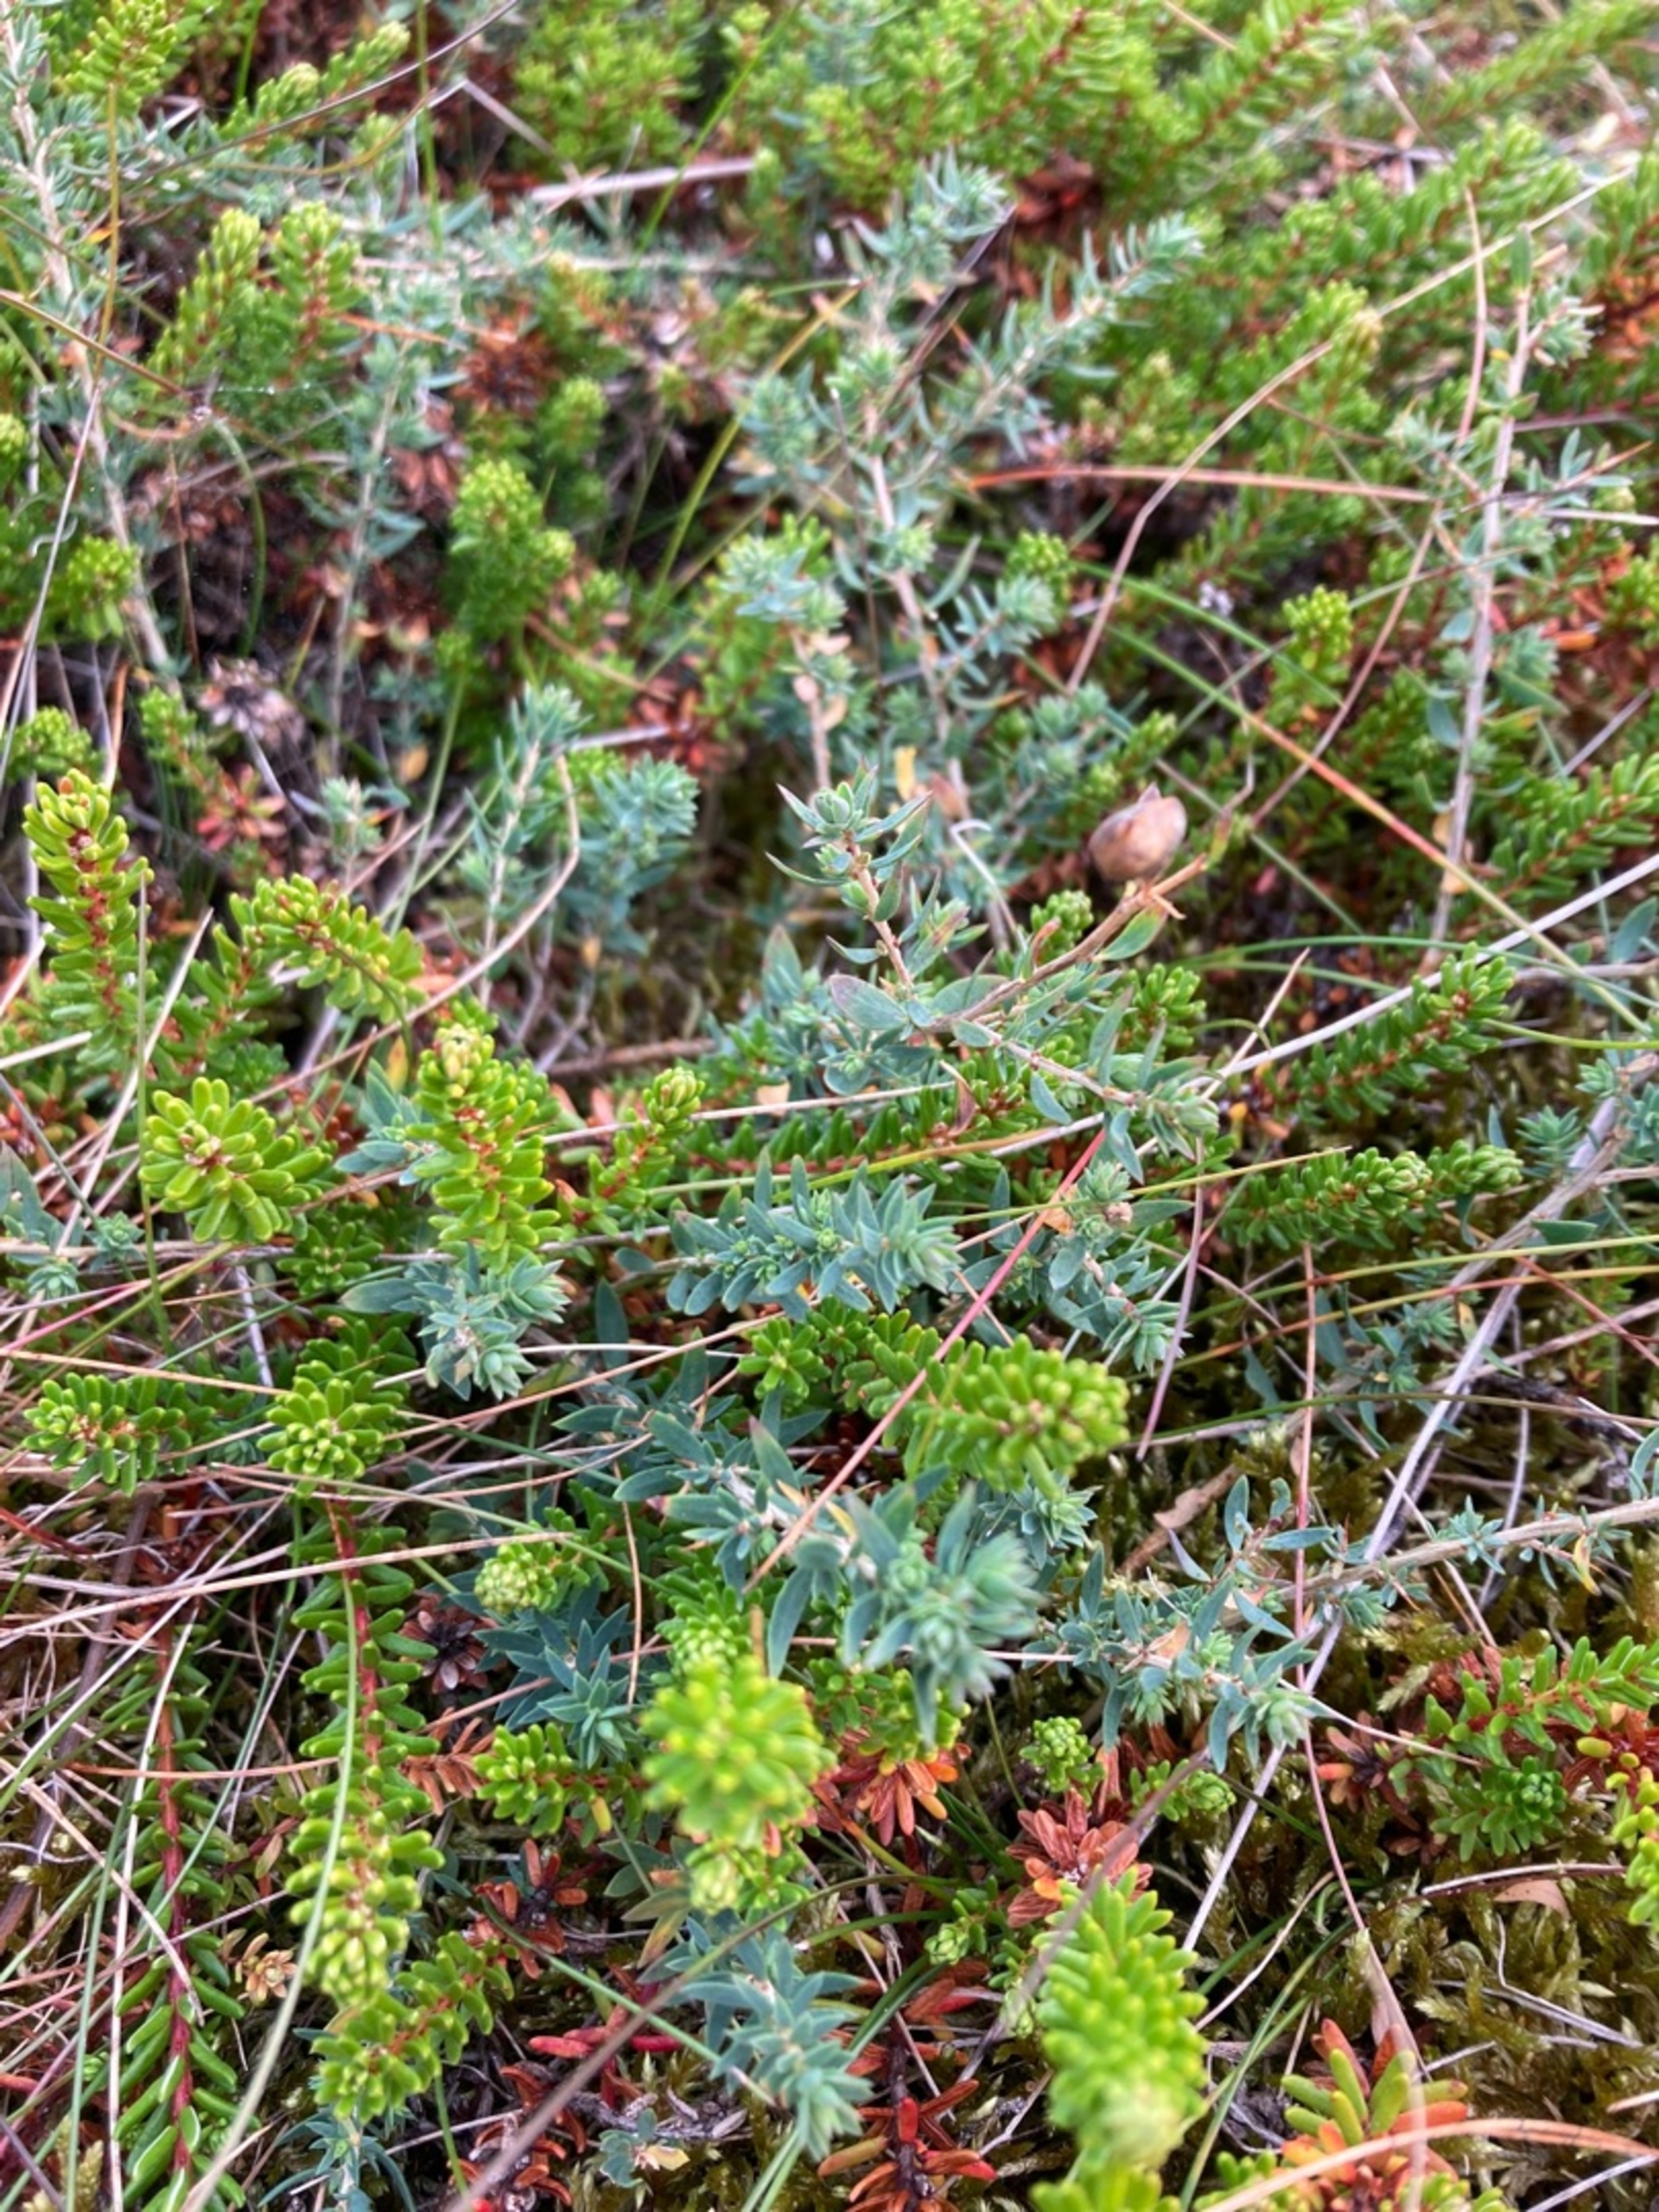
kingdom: Plantae
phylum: Tracheophyta
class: Magnoliopsida
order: Fabales
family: Fabaceae
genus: Genista
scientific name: Genista anglica
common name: Engelsk visse
